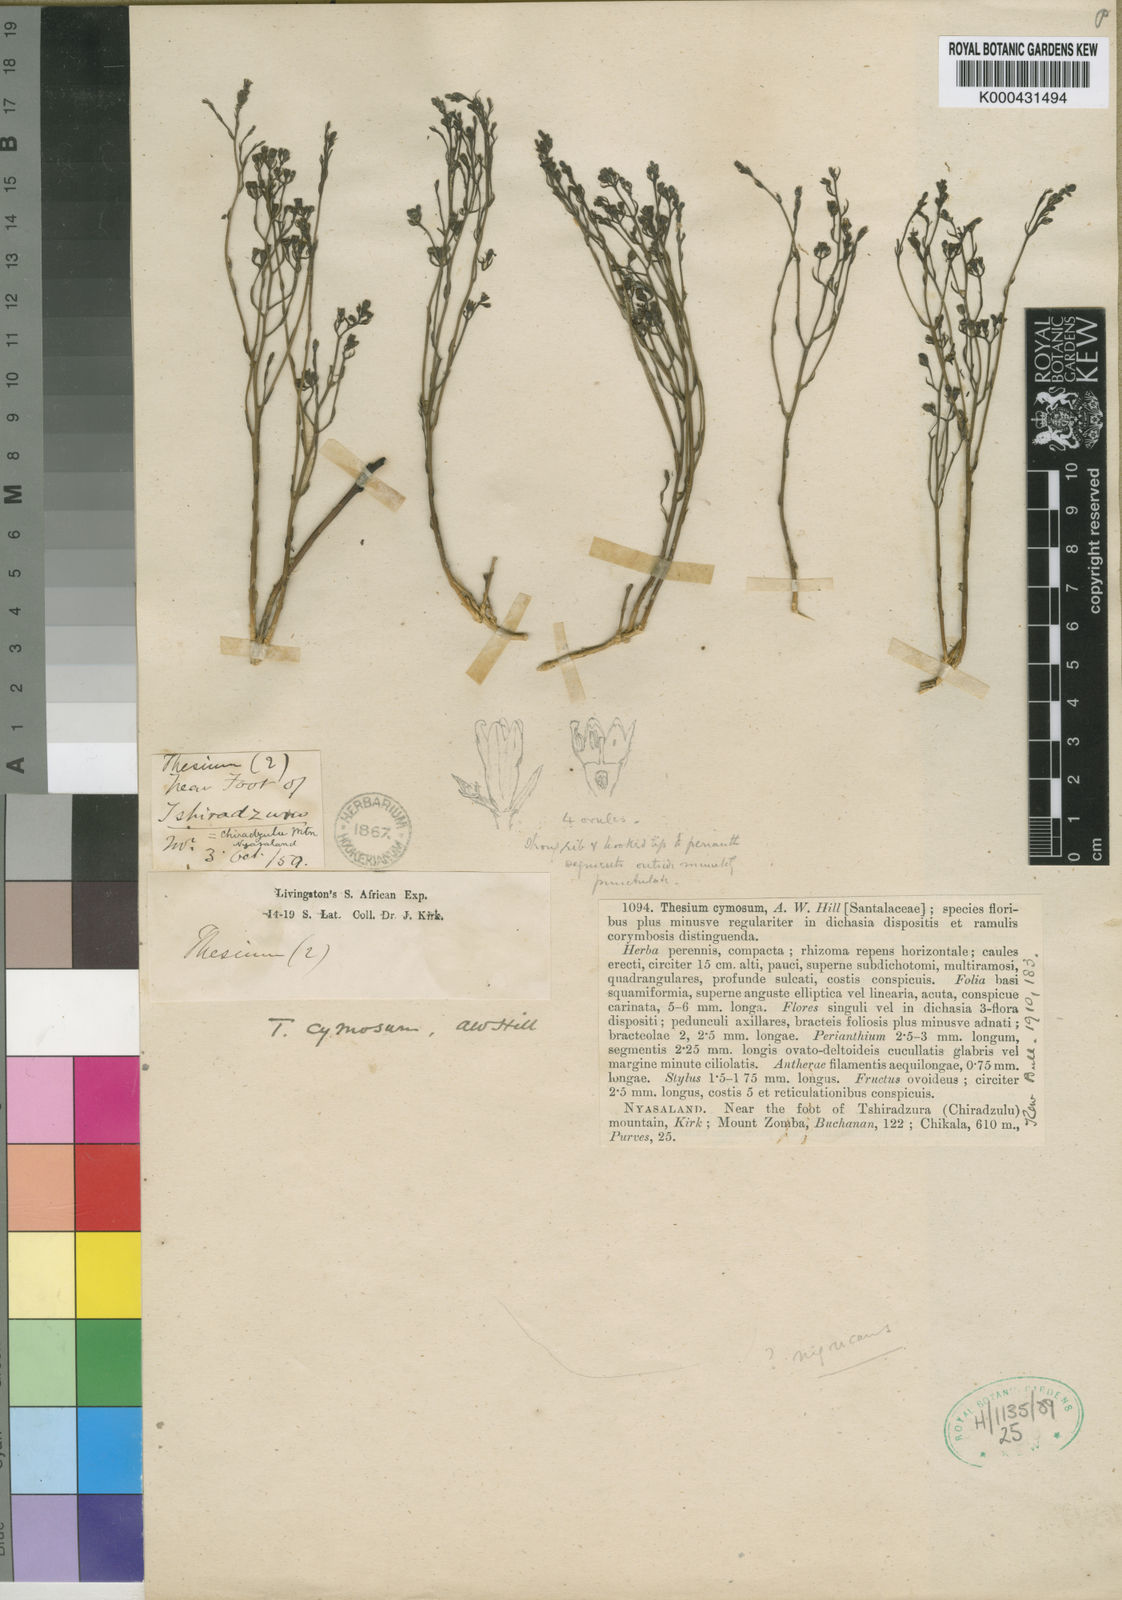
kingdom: Plantae
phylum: Tracheophyta
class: Magnoliopsida
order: Santalales
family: Thesiaceae
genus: Thesium
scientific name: Thesium cymosum
